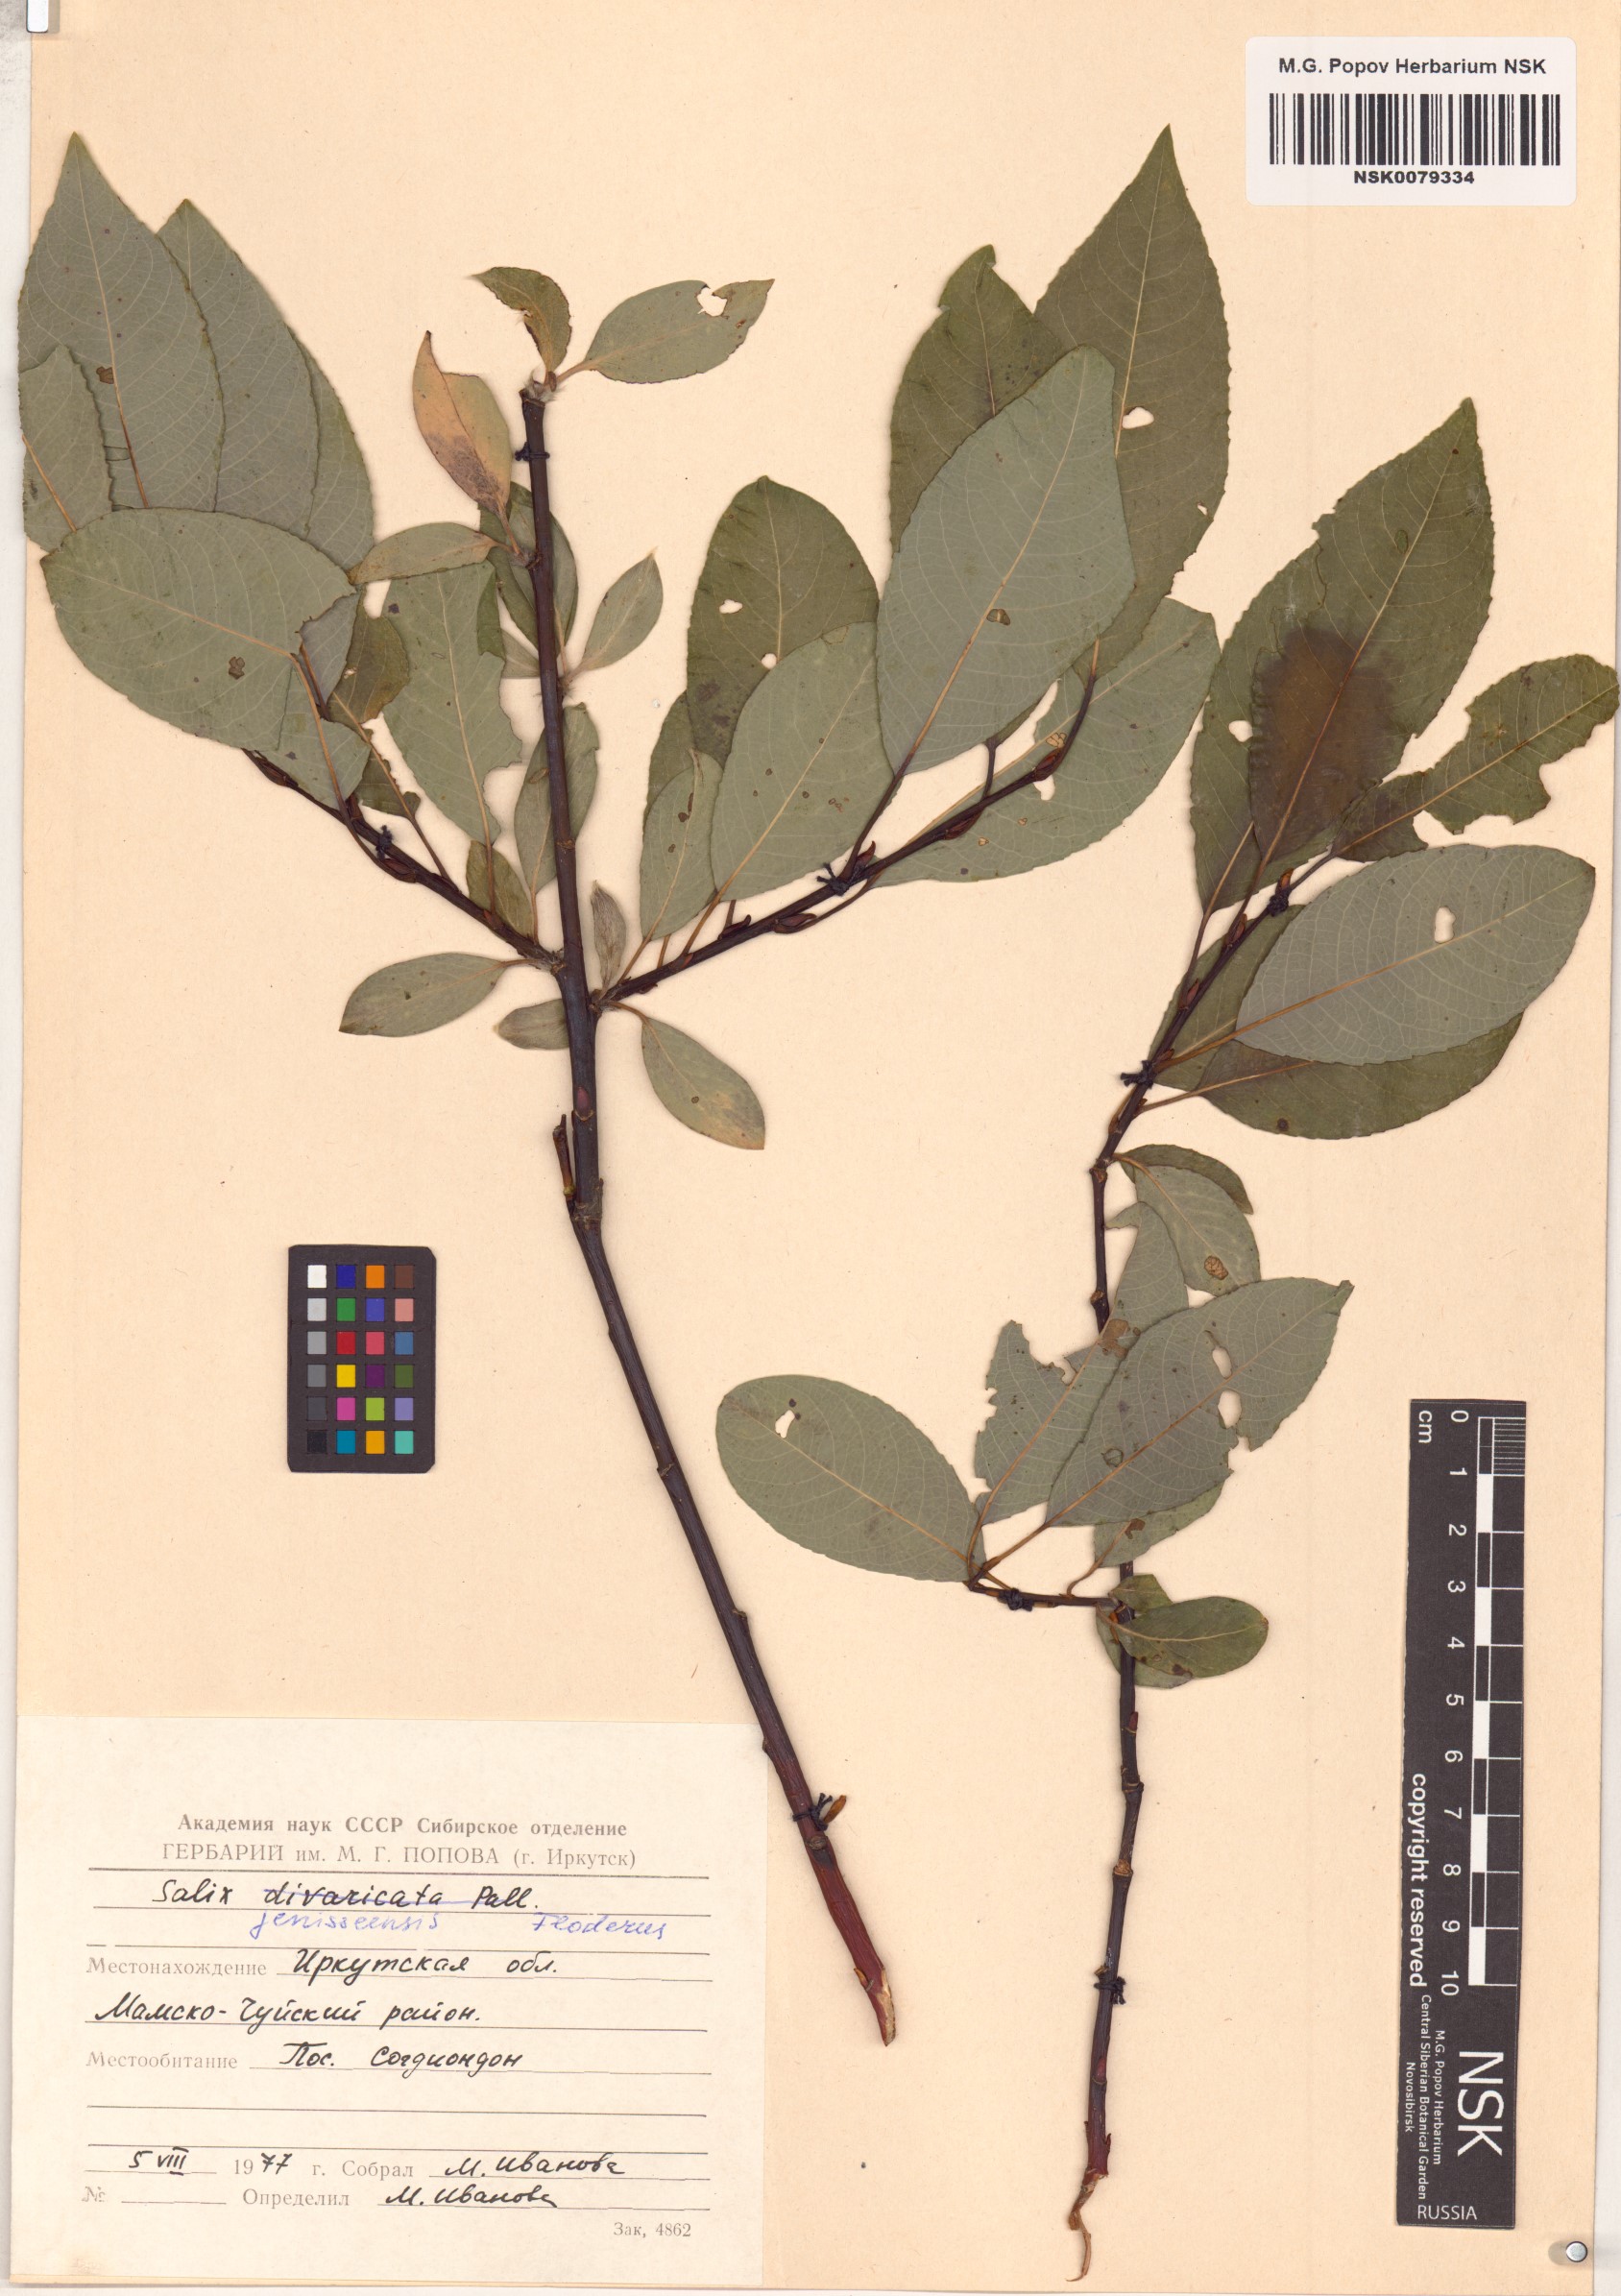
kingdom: Plantae
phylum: Tracheophyta
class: Magnoliopsida
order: Malpighiales
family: Salicaceae
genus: Salix
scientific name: Salix jenisseensis
